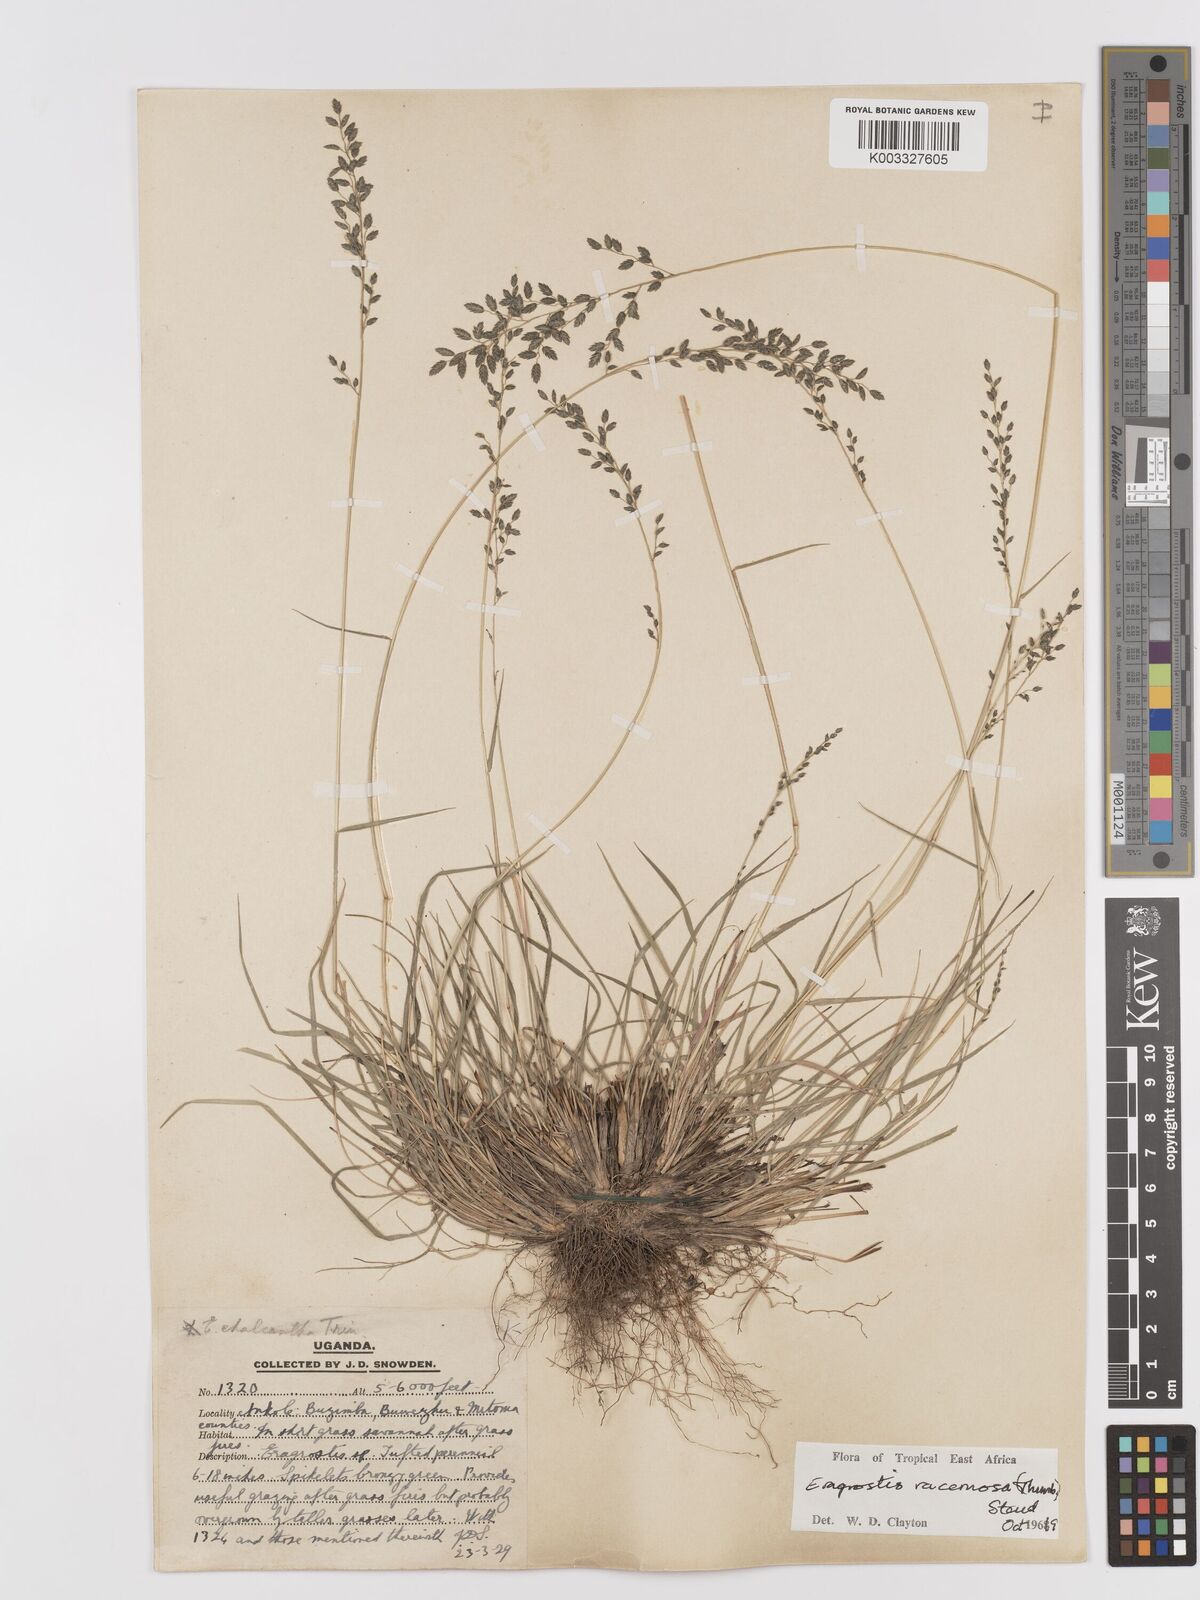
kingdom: Plantae
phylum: Tracheophyta
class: Liliopsida
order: Poales
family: Poaceae
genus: Eragrostis
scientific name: Eragrostis racemosa
